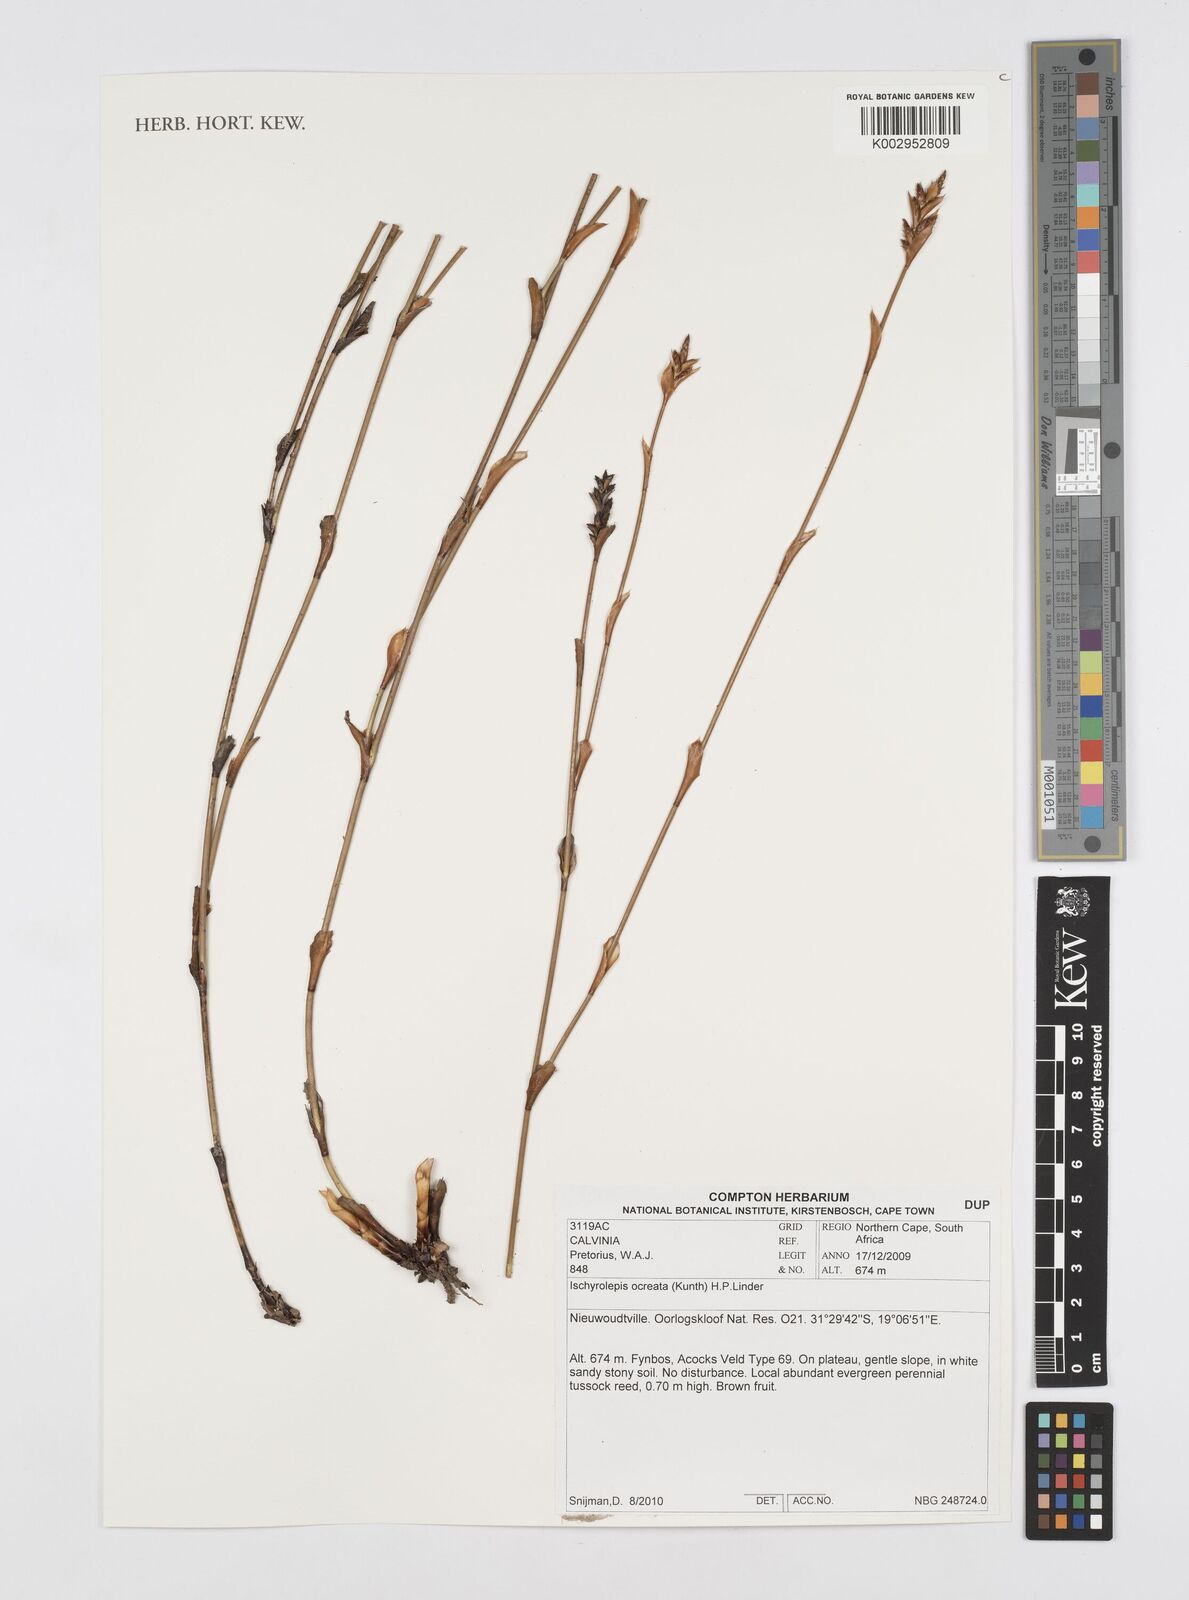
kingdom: Plantae
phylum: Tracheophyta
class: Liliopsida
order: Poales
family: Restionaceae
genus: Restio
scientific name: Restio ocreatus
